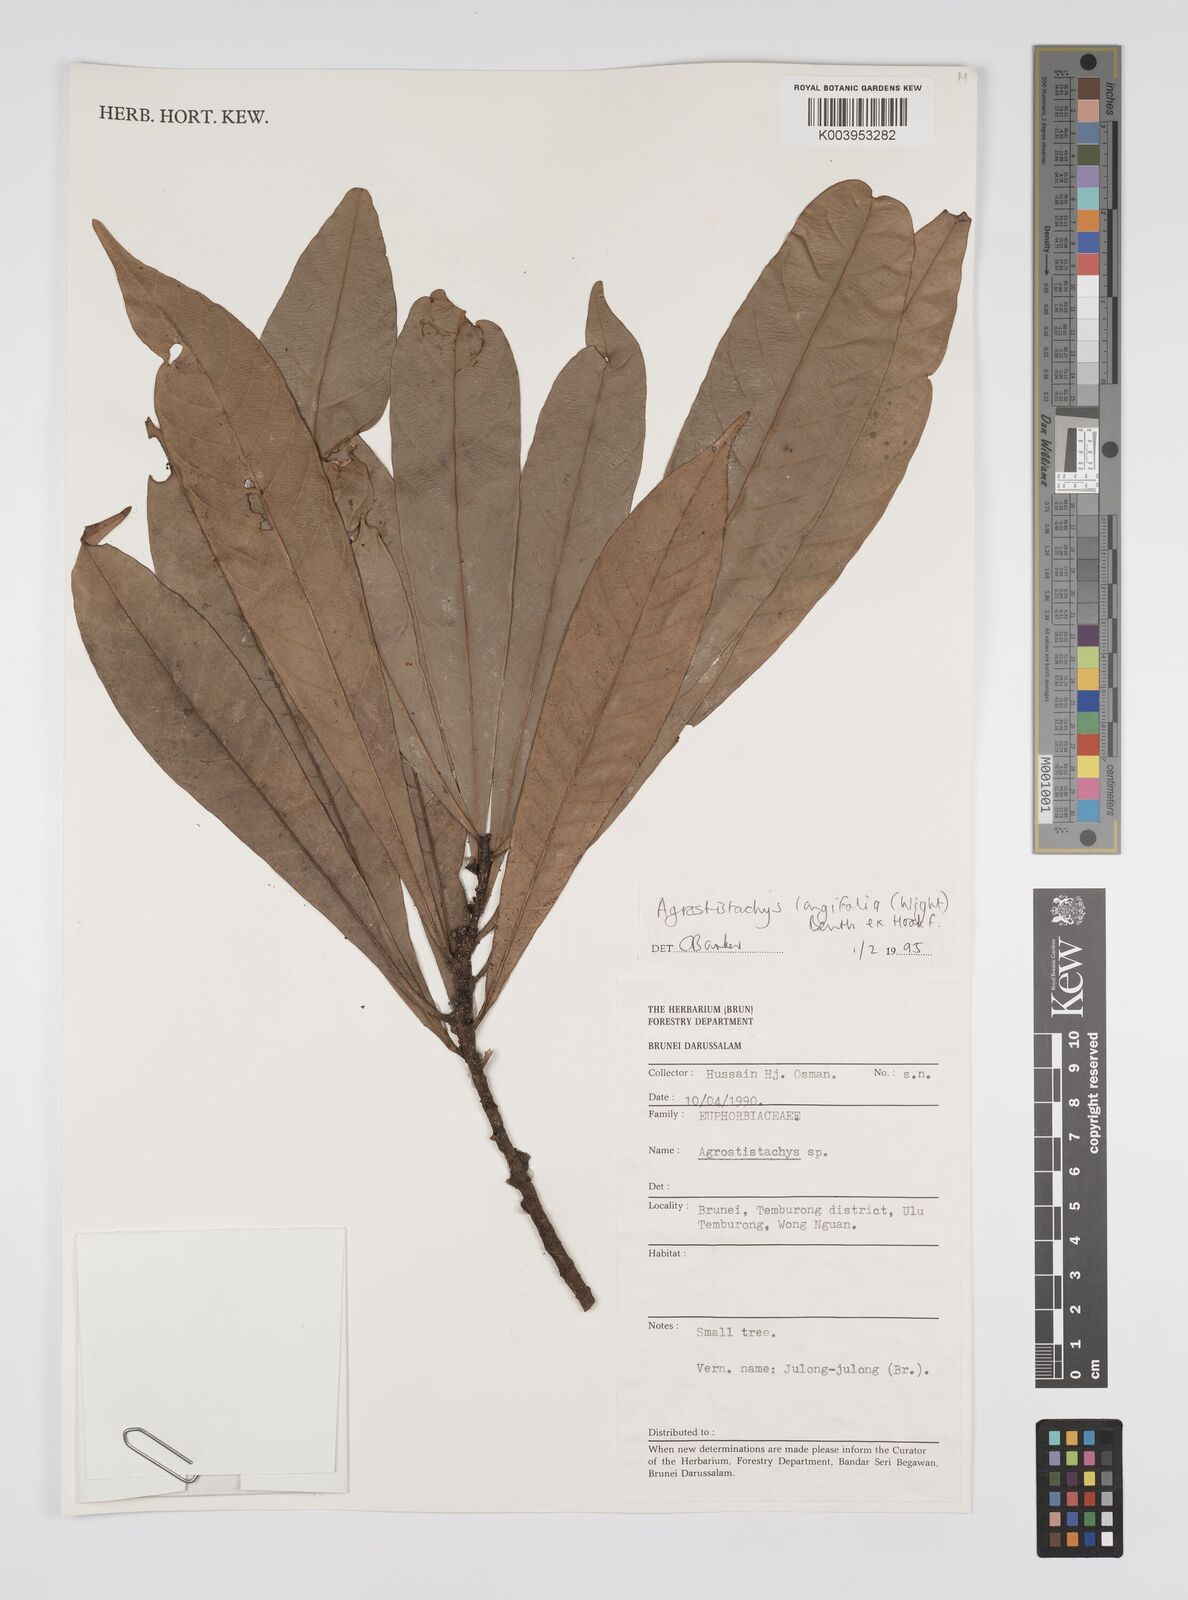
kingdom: Plantae
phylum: Tracheophyta
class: Magnoliopsida
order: Malpighiales
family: Euphorbiaceae
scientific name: Euphorbiaceae
